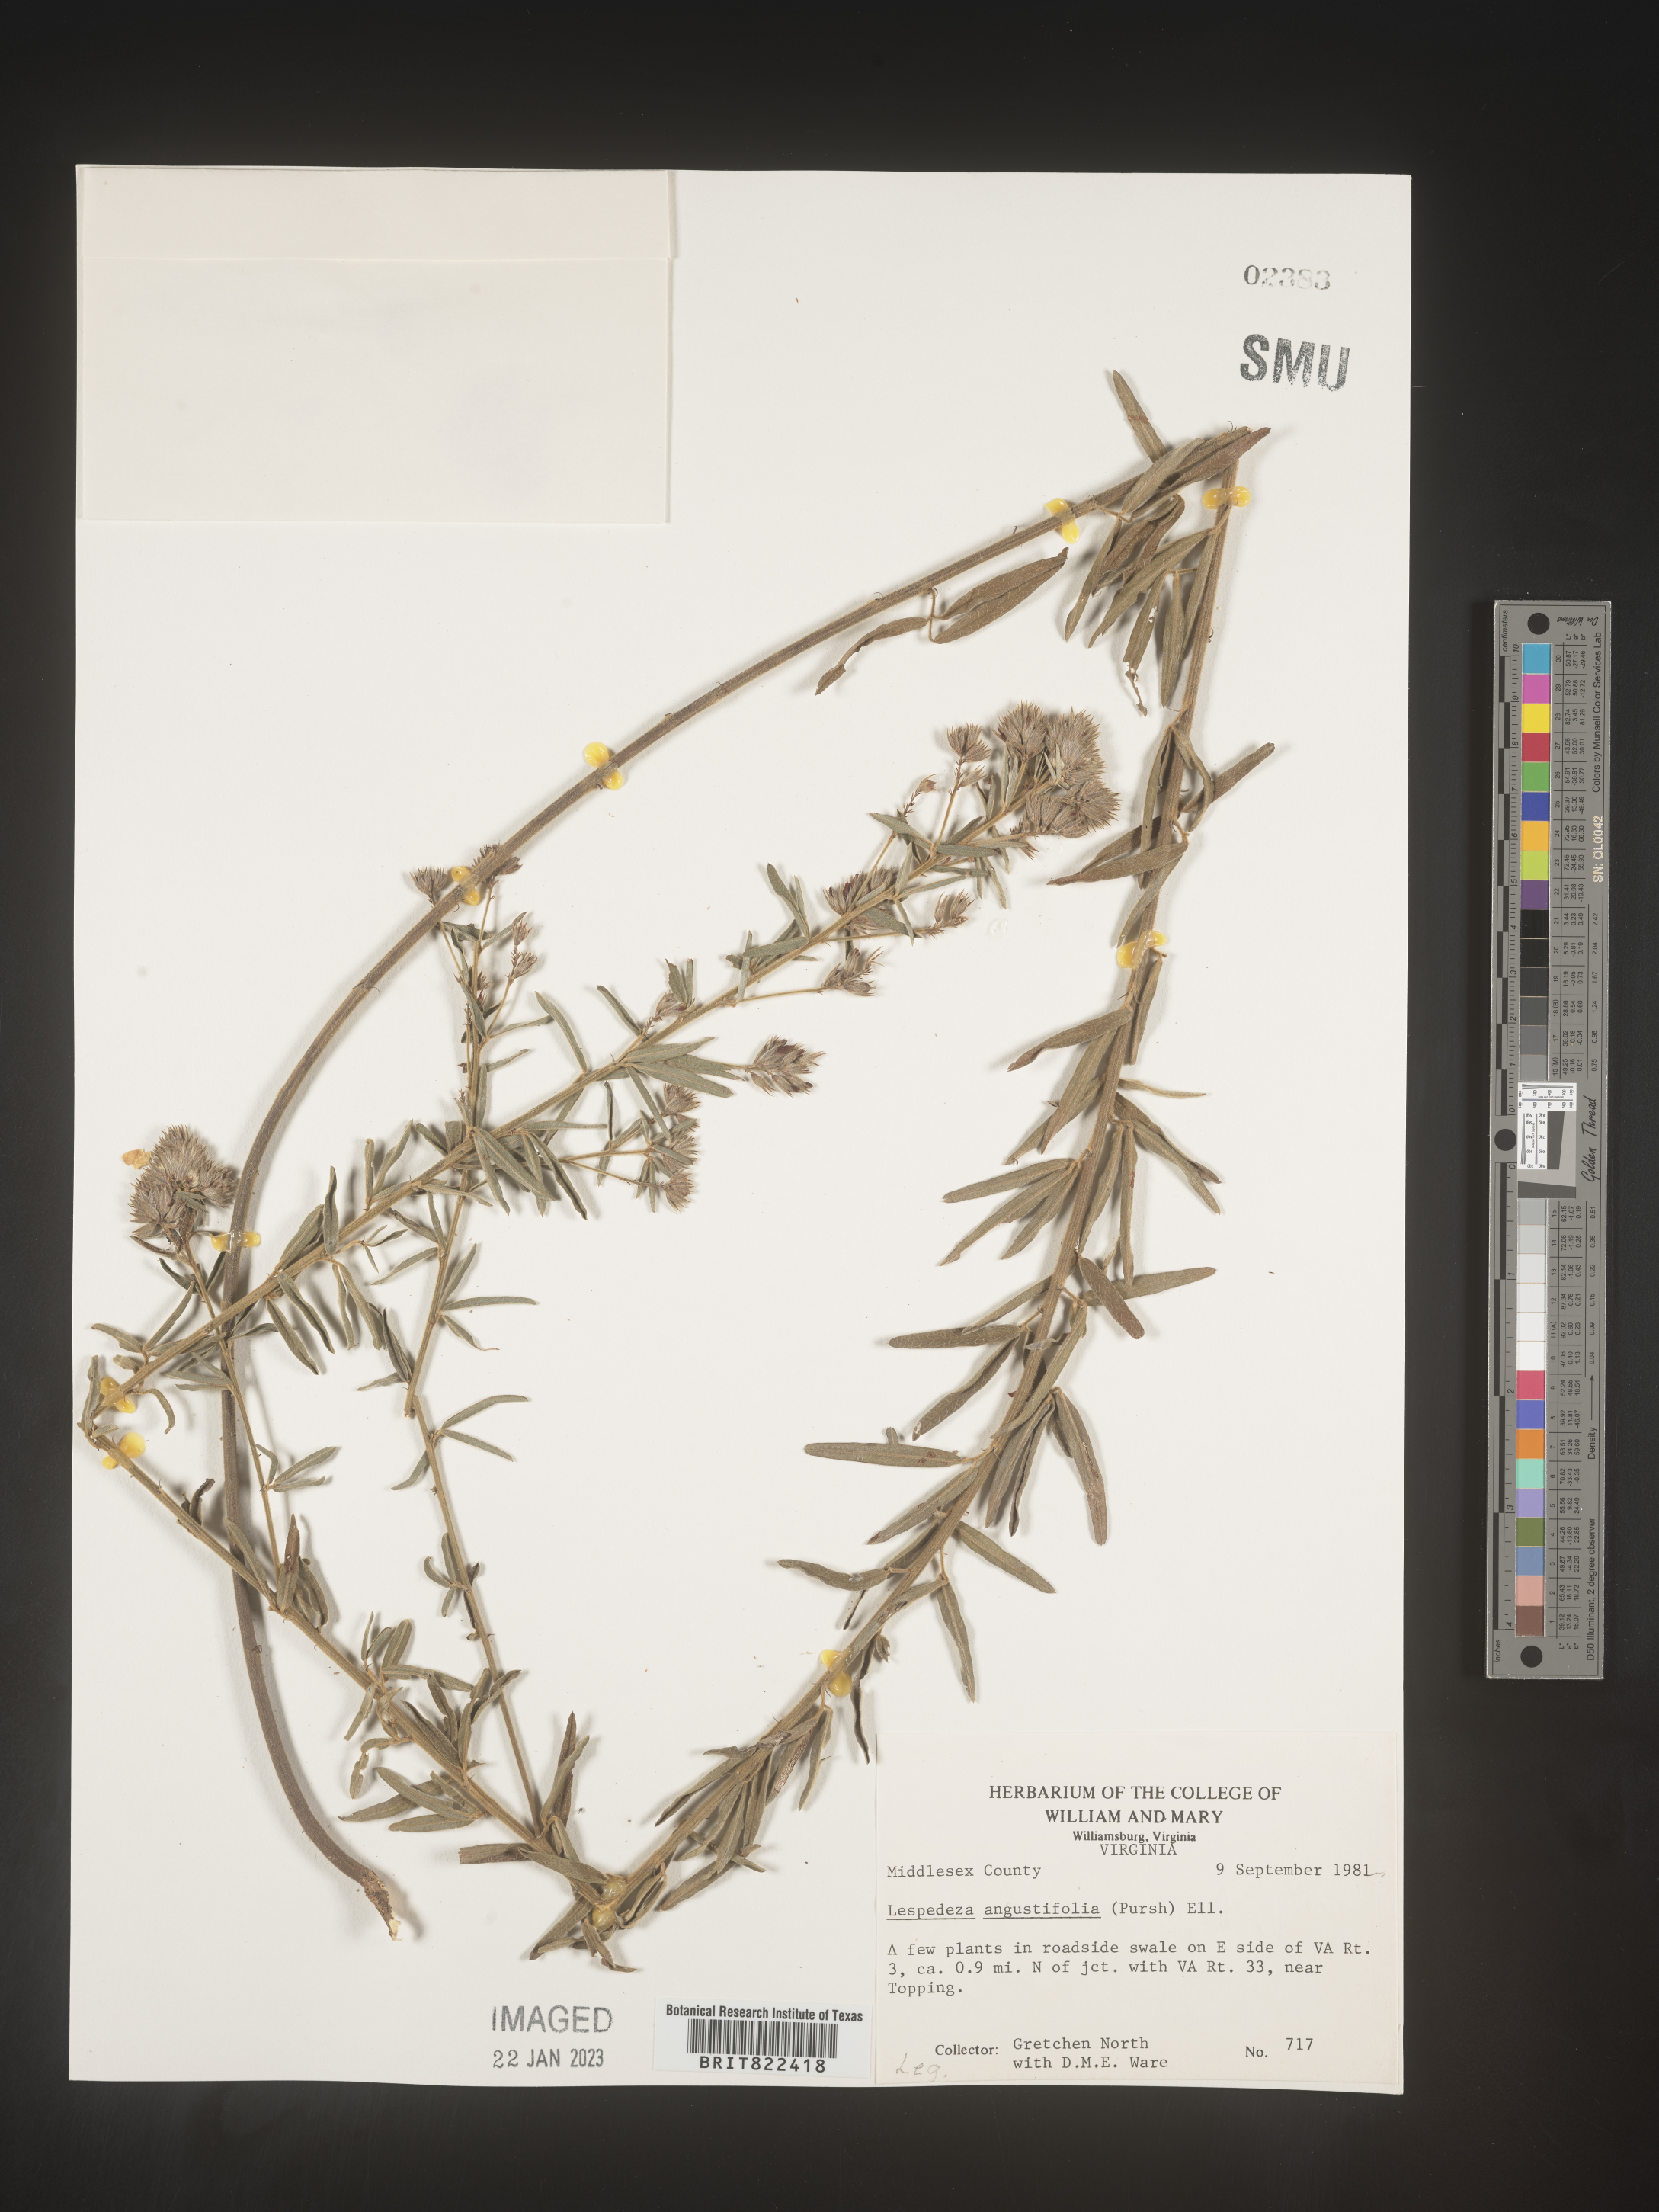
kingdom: Plantae
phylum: Tracheophyta
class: Magnoliopsida
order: Fabales
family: Fabaceae
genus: Lespedeza
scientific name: Lespedeza
